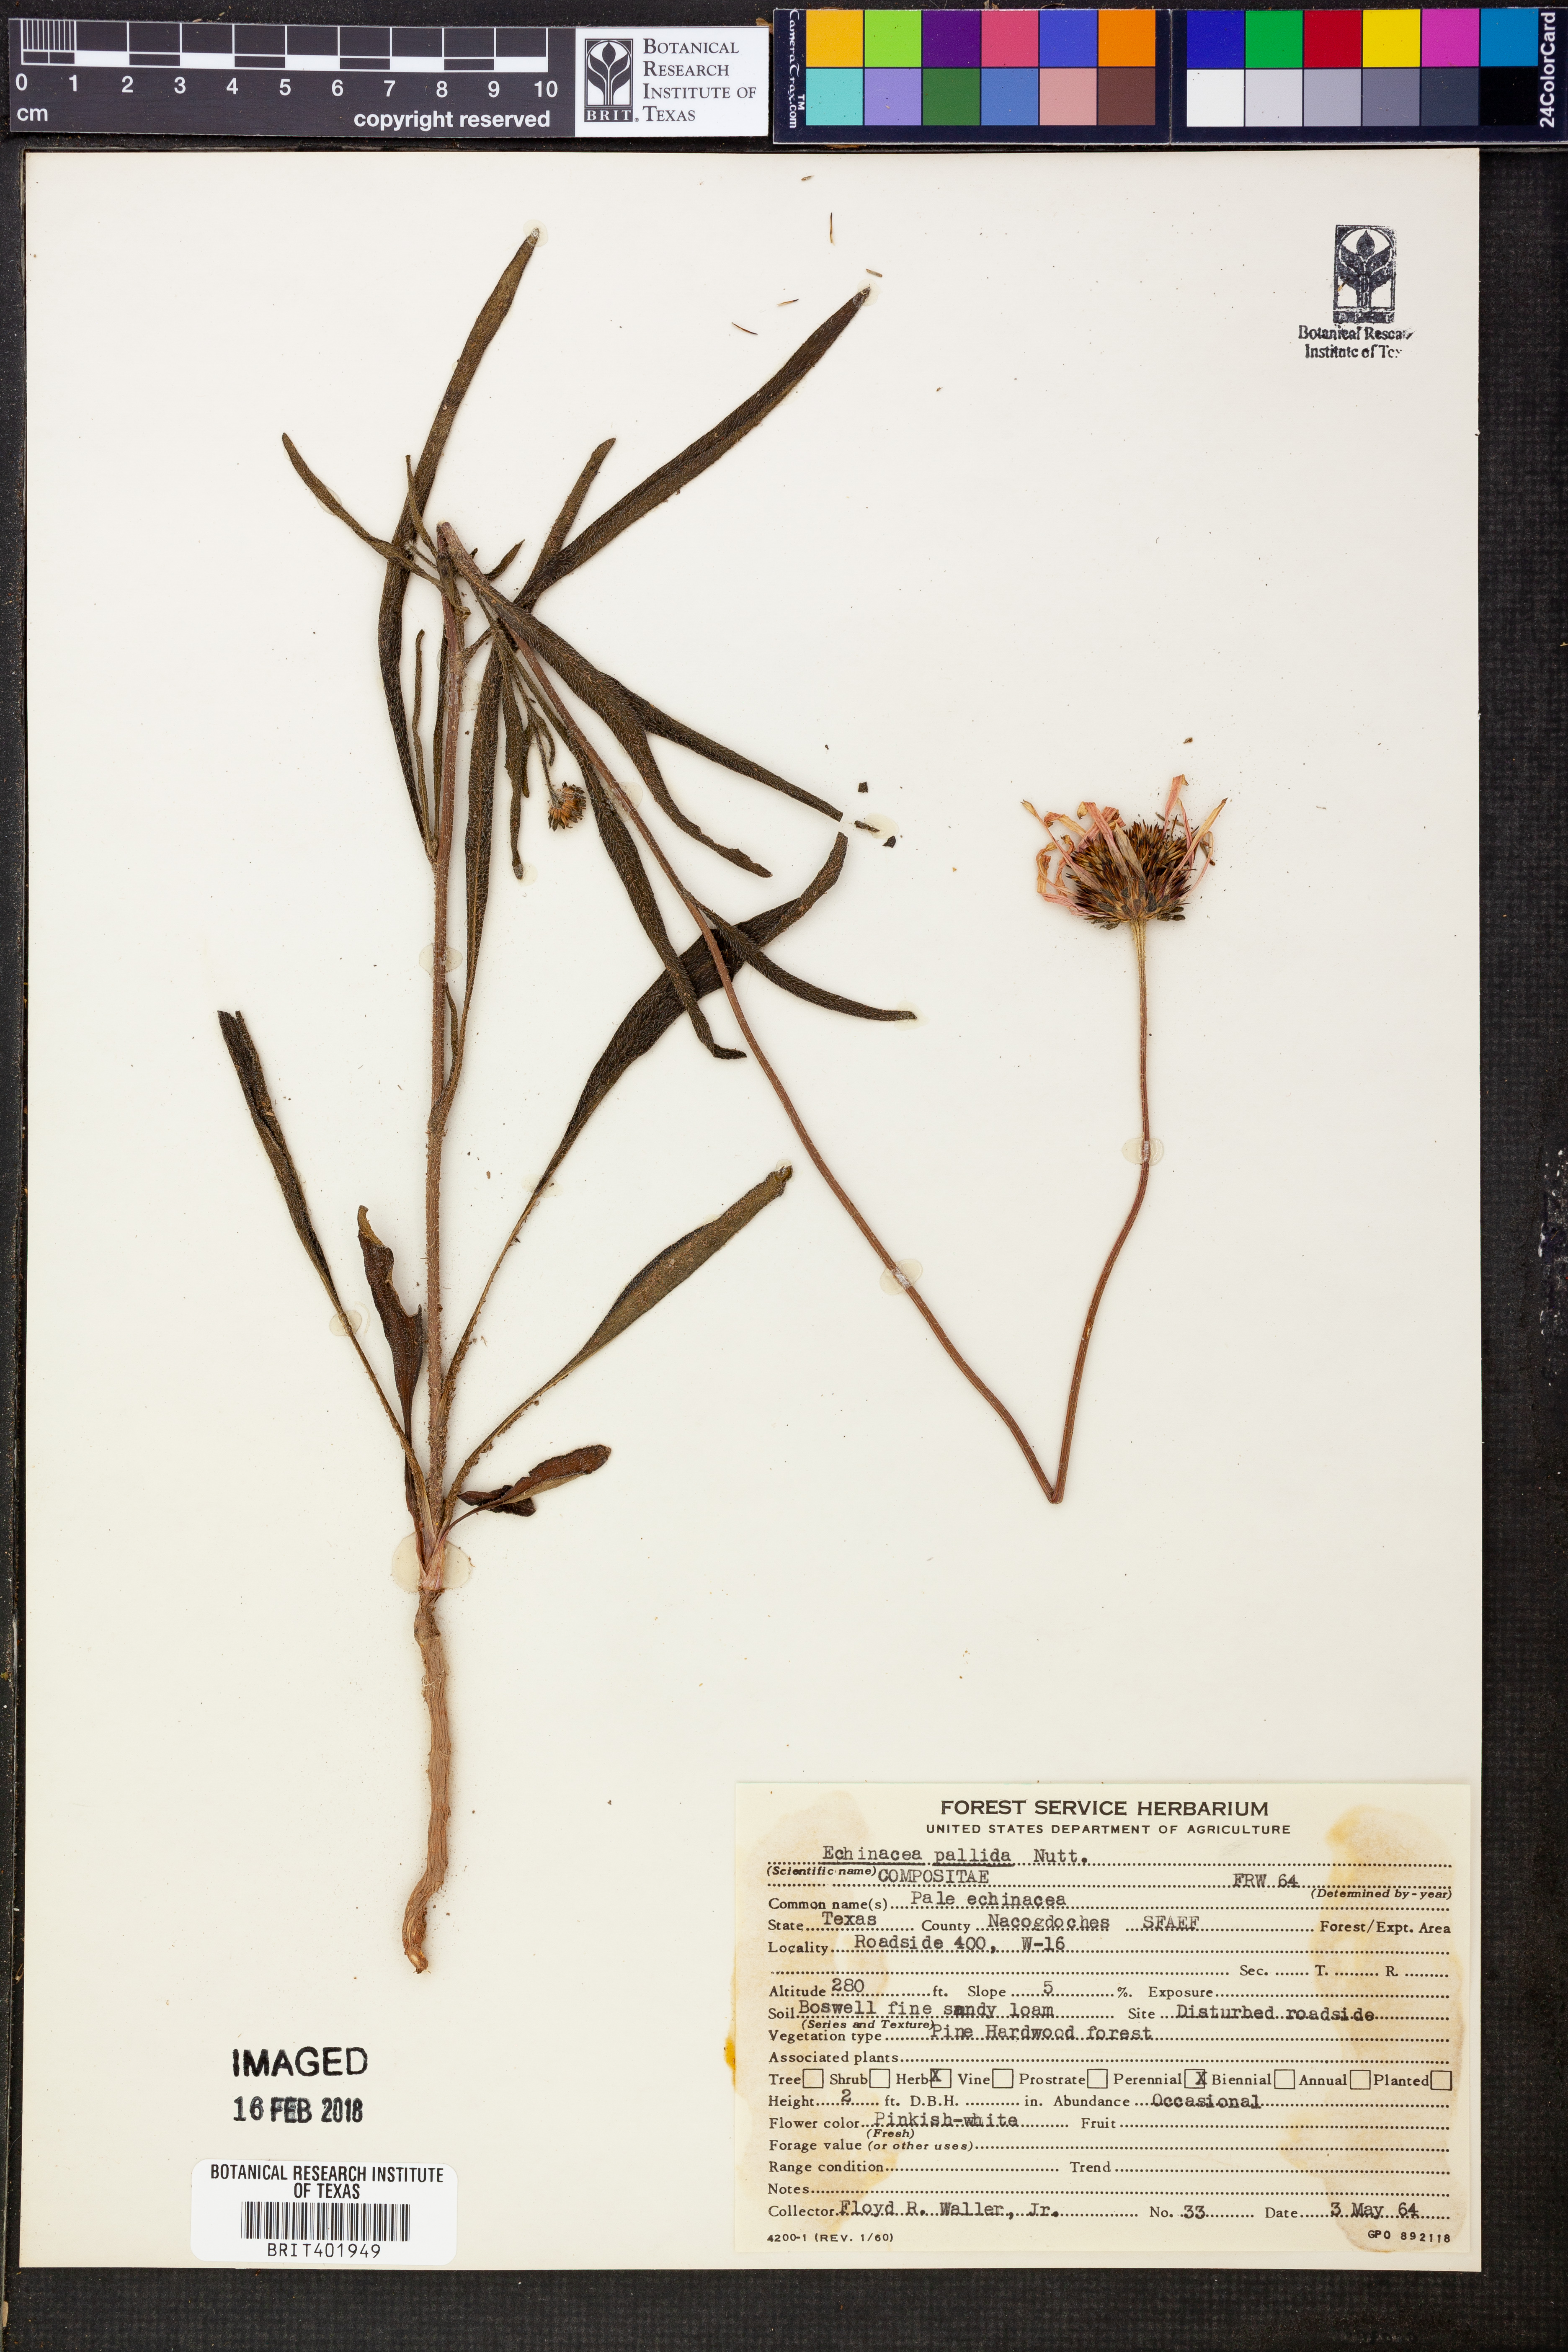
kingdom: Plantae
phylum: Tracheophyta
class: Magnoliopsida
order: Asterales
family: Asteraceae
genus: Echinacea
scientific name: Echinacea pallida
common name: Pale echinacea
